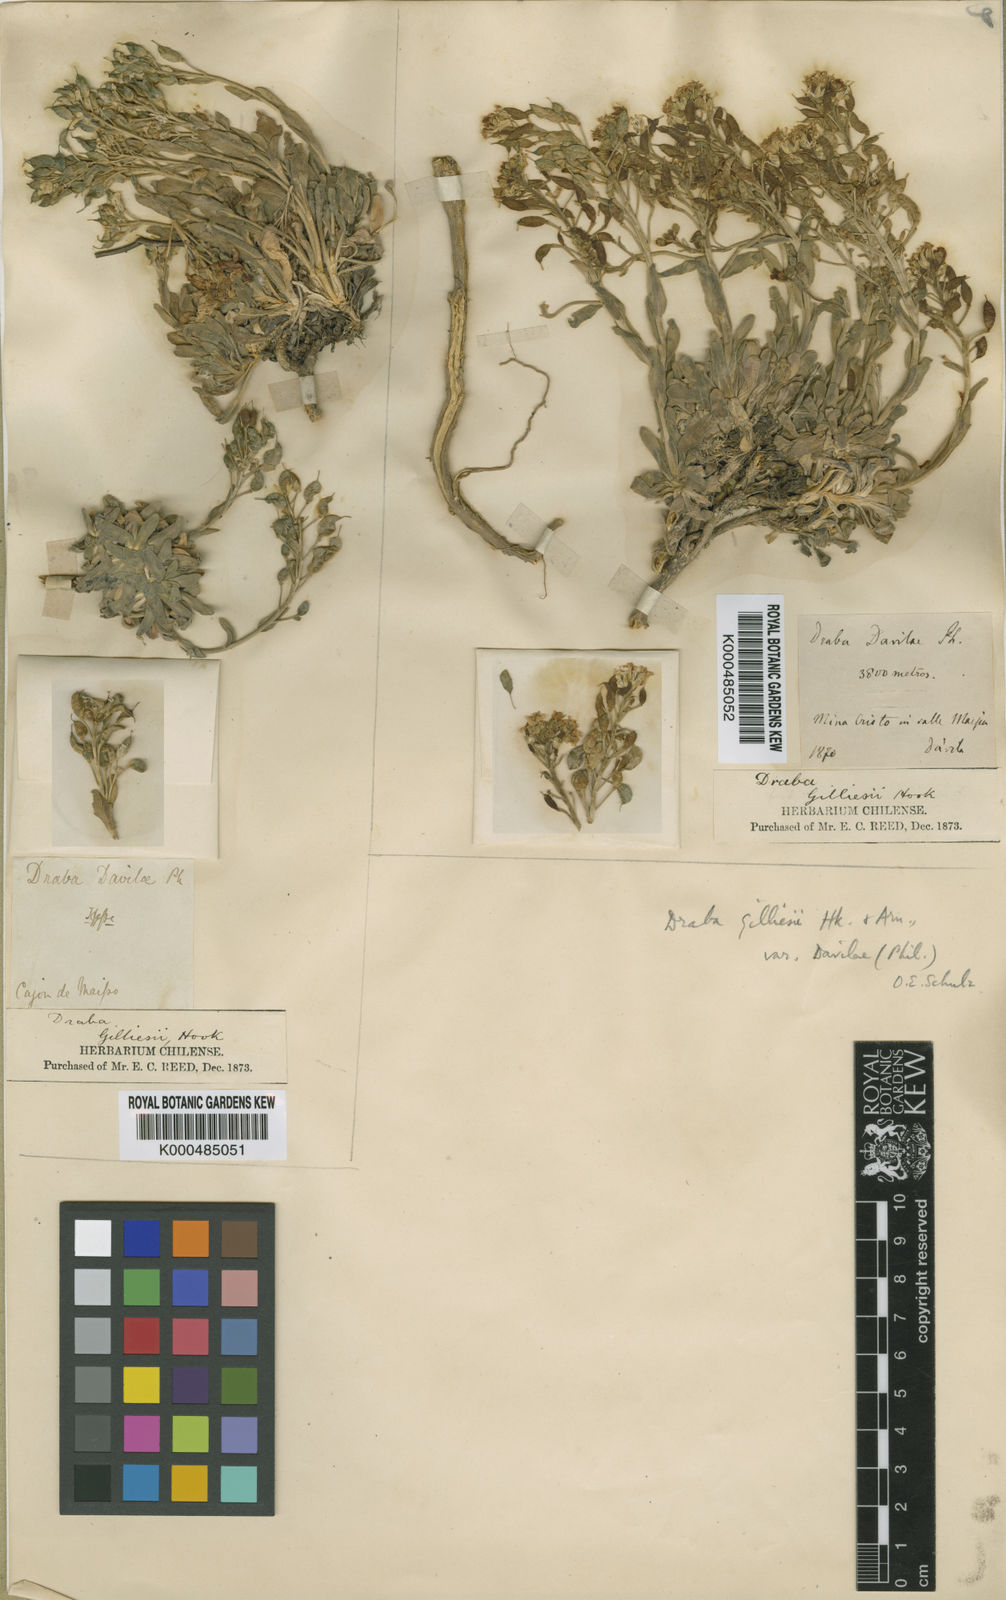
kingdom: Plantae
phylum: Tracheophyta
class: Magnoliopsida
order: Brassicales
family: Brassicaceae
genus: Draba
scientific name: Draba gilliesii
